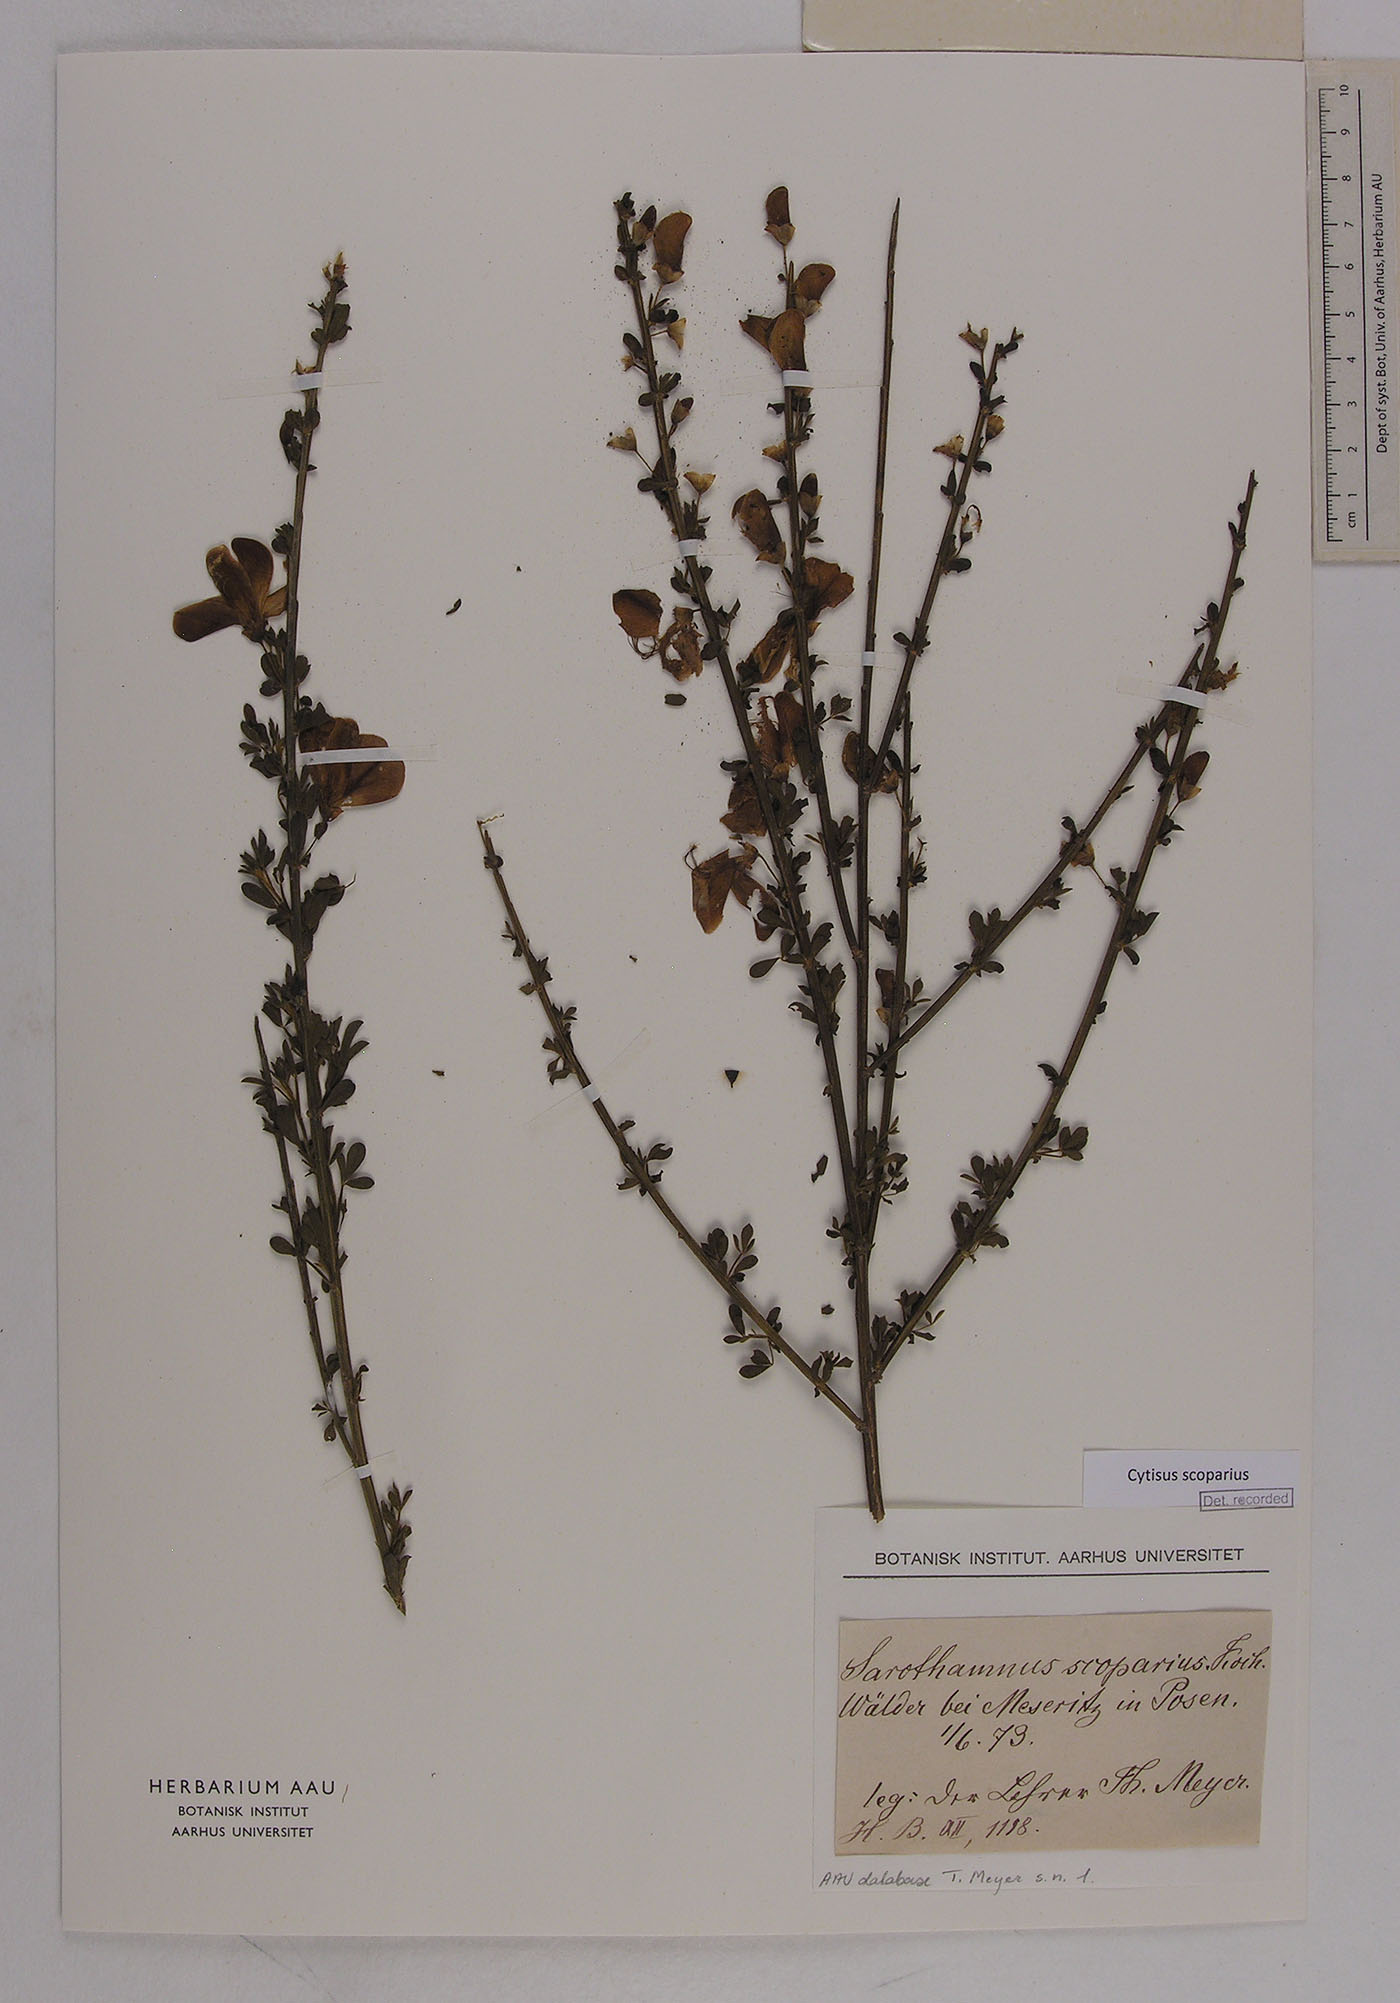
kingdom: Plantae
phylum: Tracheophyta
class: Magnoliopsida
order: Fabales
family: Fabaceae
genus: Cytisus
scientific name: Cytisus scoparius
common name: Scotch broom
